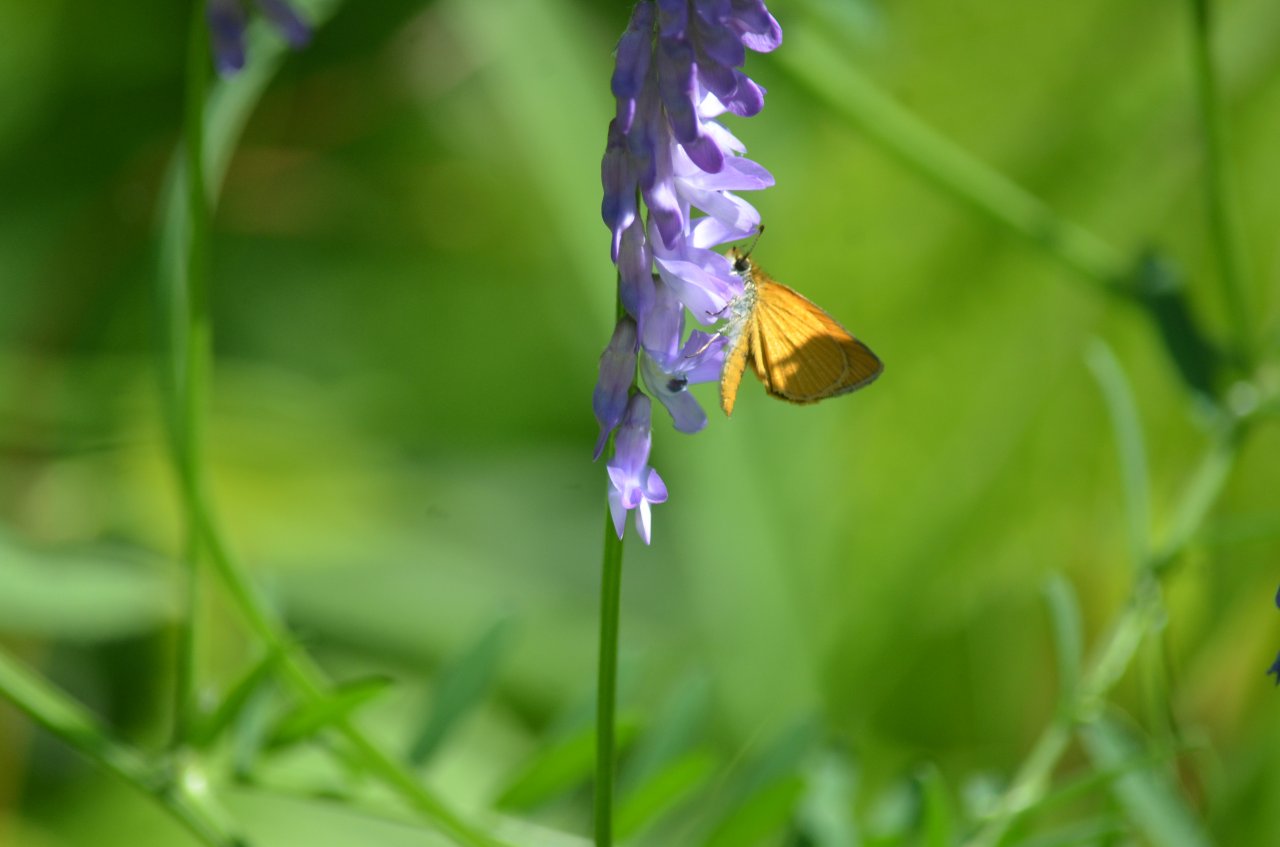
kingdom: Animalia
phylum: Arthropoda
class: Insecta
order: Lepidoptera
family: Hesperiidae
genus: Ancyloxypha
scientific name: Ancyloxypha numitor
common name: Least Skipper
